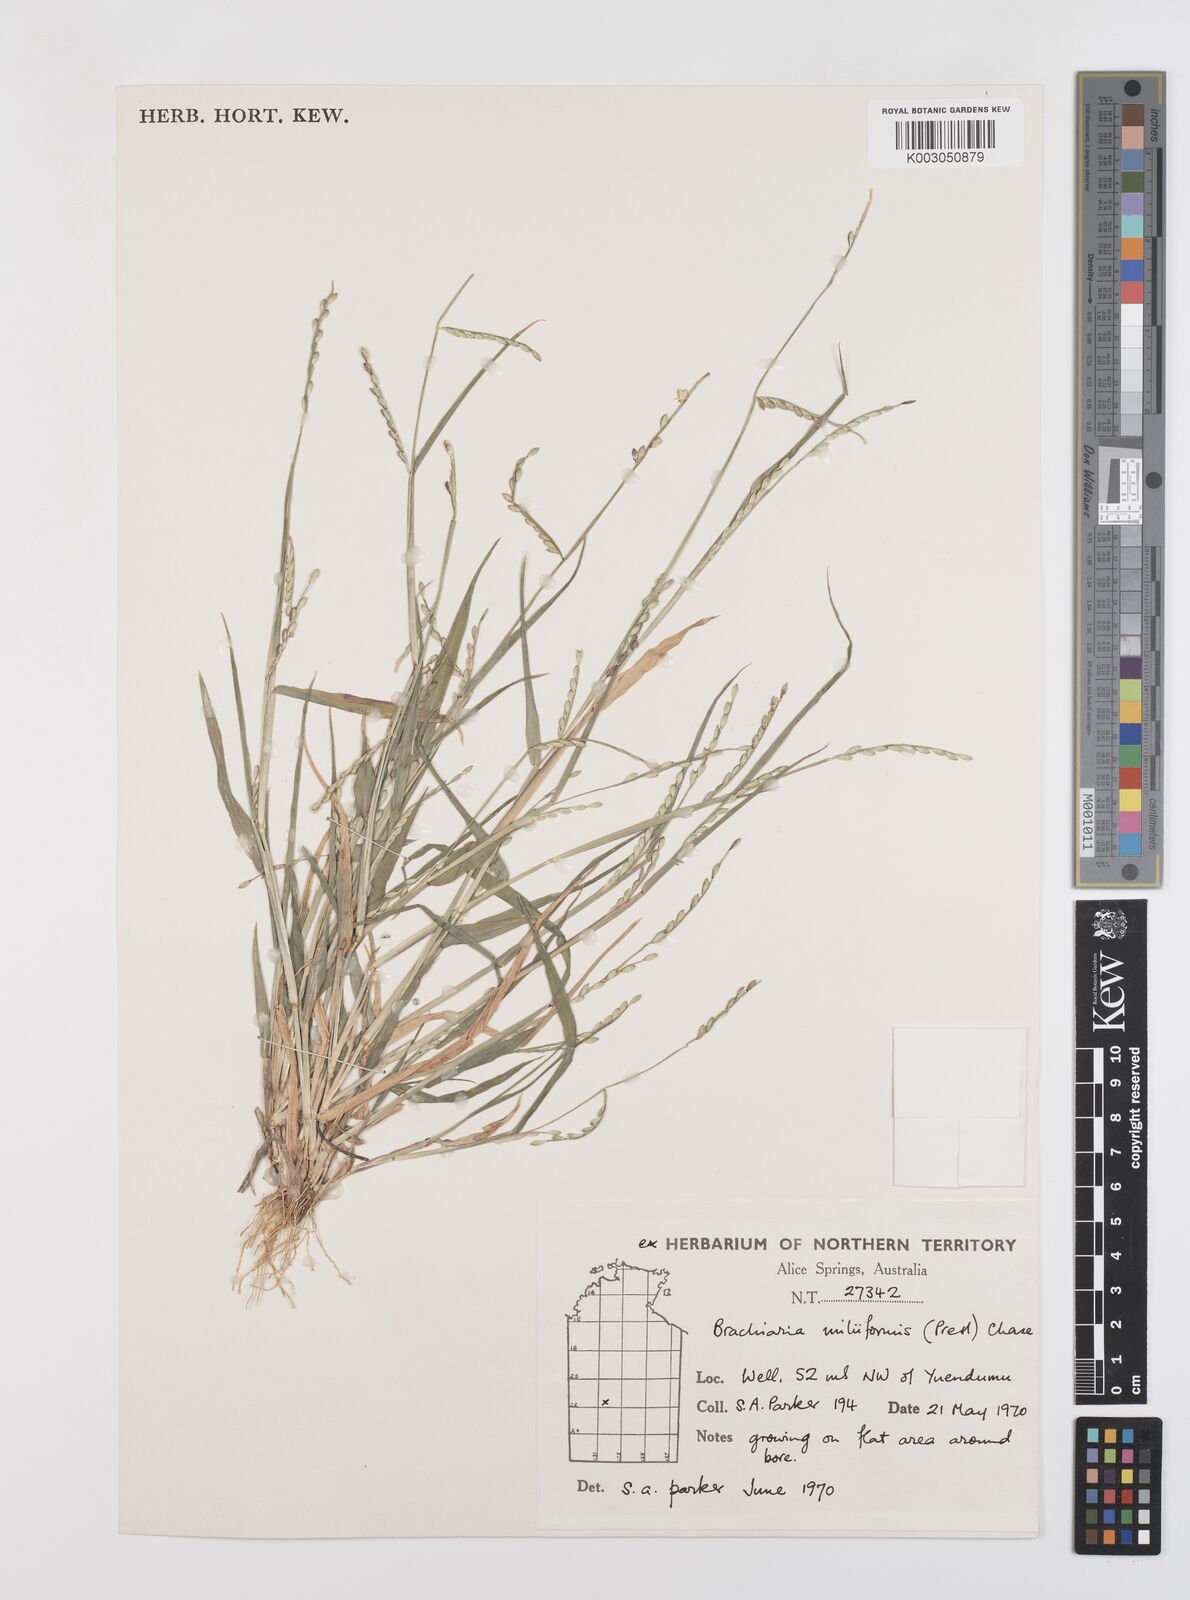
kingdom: Plantae
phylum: Tracheophyta
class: Liliopsida
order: Poales
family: Poaceae
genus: Urochloa
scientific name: Urochloa subquadripara
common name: Armgrass millet
